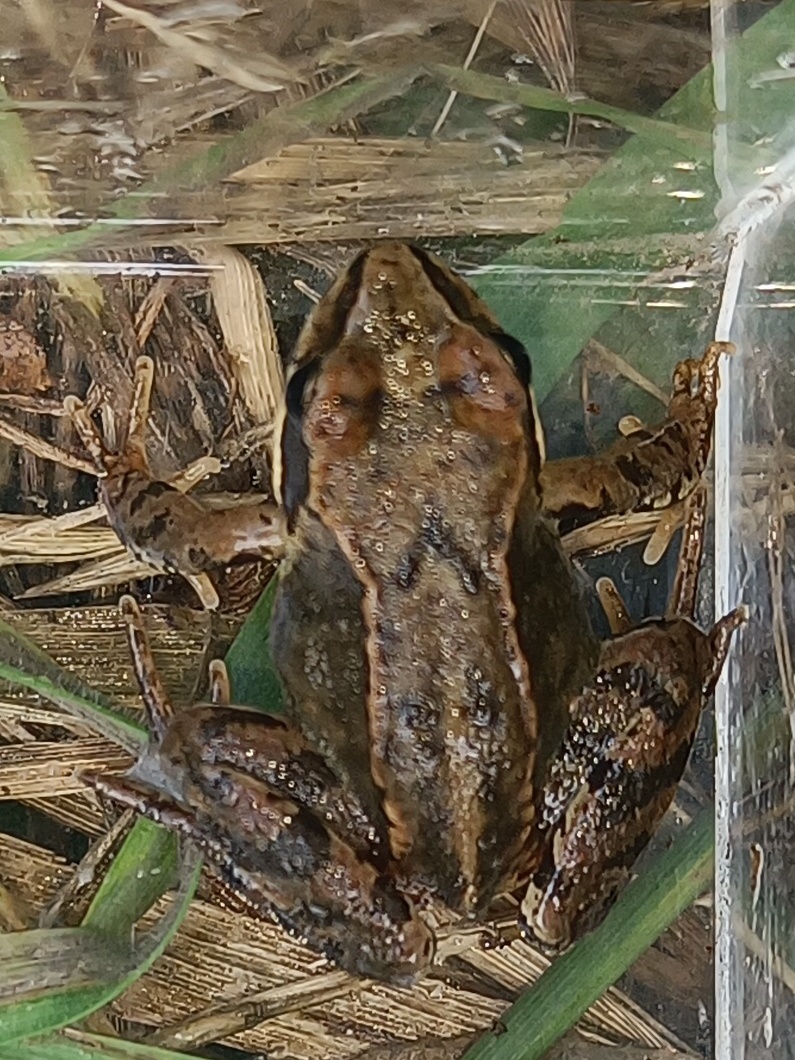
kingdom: Animalia
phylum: Chordata
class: Amphibia
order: Anura
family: Ranidae
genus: Rana
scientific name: Rana temporaria
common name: Butsnudet frø
